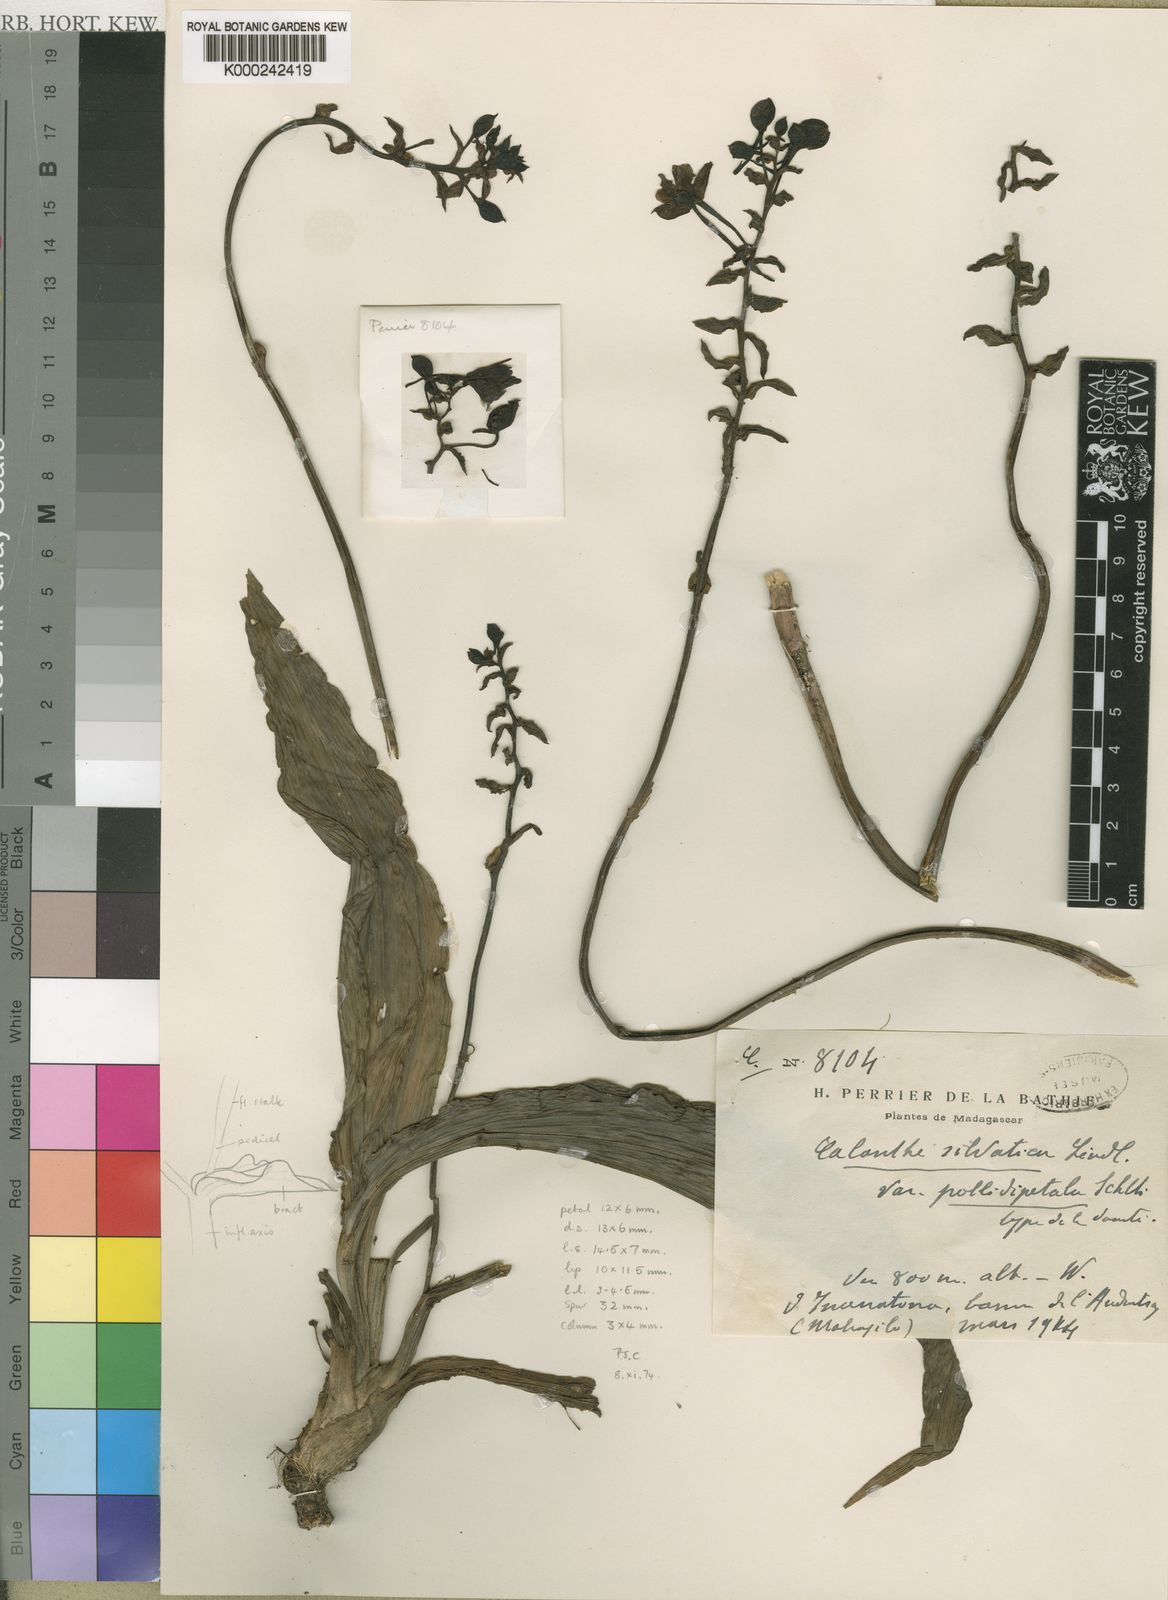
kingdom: Plantae
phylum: Tracheophyta
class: Liliopsida
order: Asparagales
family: Orchidaceae
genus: Calanthe
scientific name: Calanthe sylvatica
